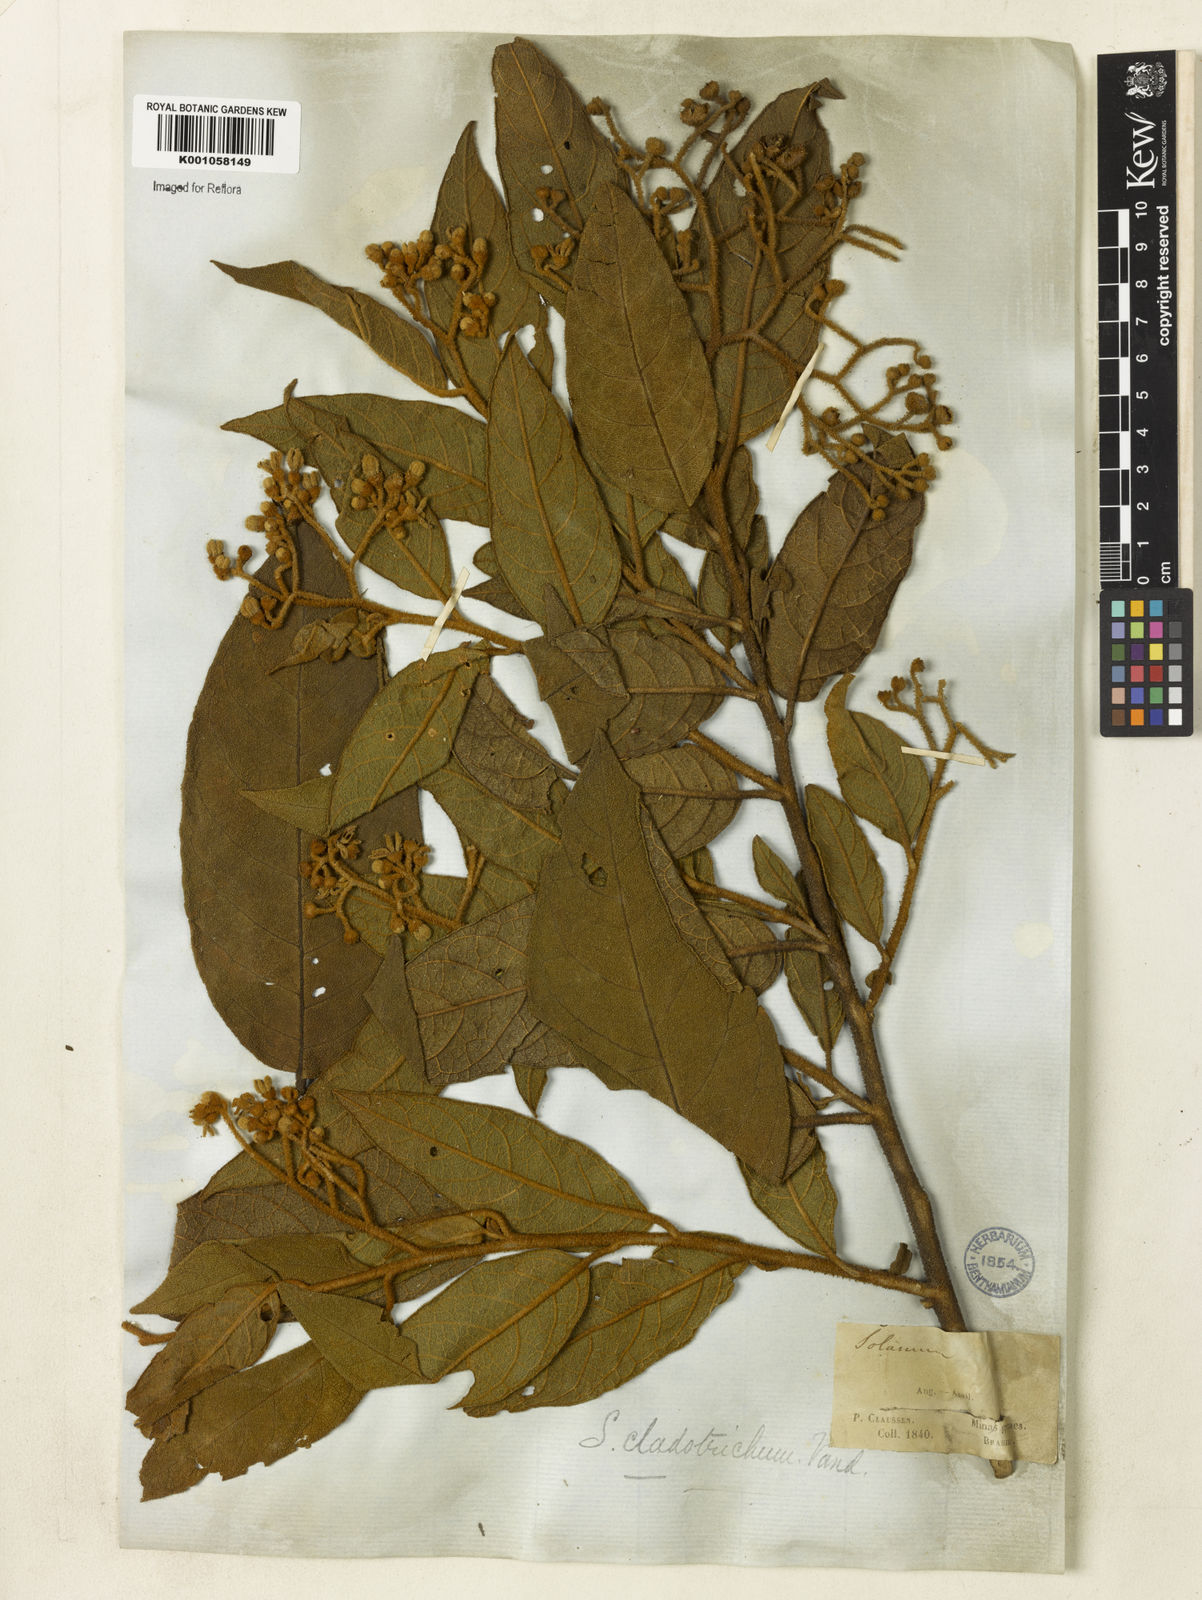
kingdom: Plantae
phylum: Tracheophyta
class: Magnoliopsida
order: Solanales
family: Solanaceae
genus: Solanum
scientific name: Solanum jussiaei
